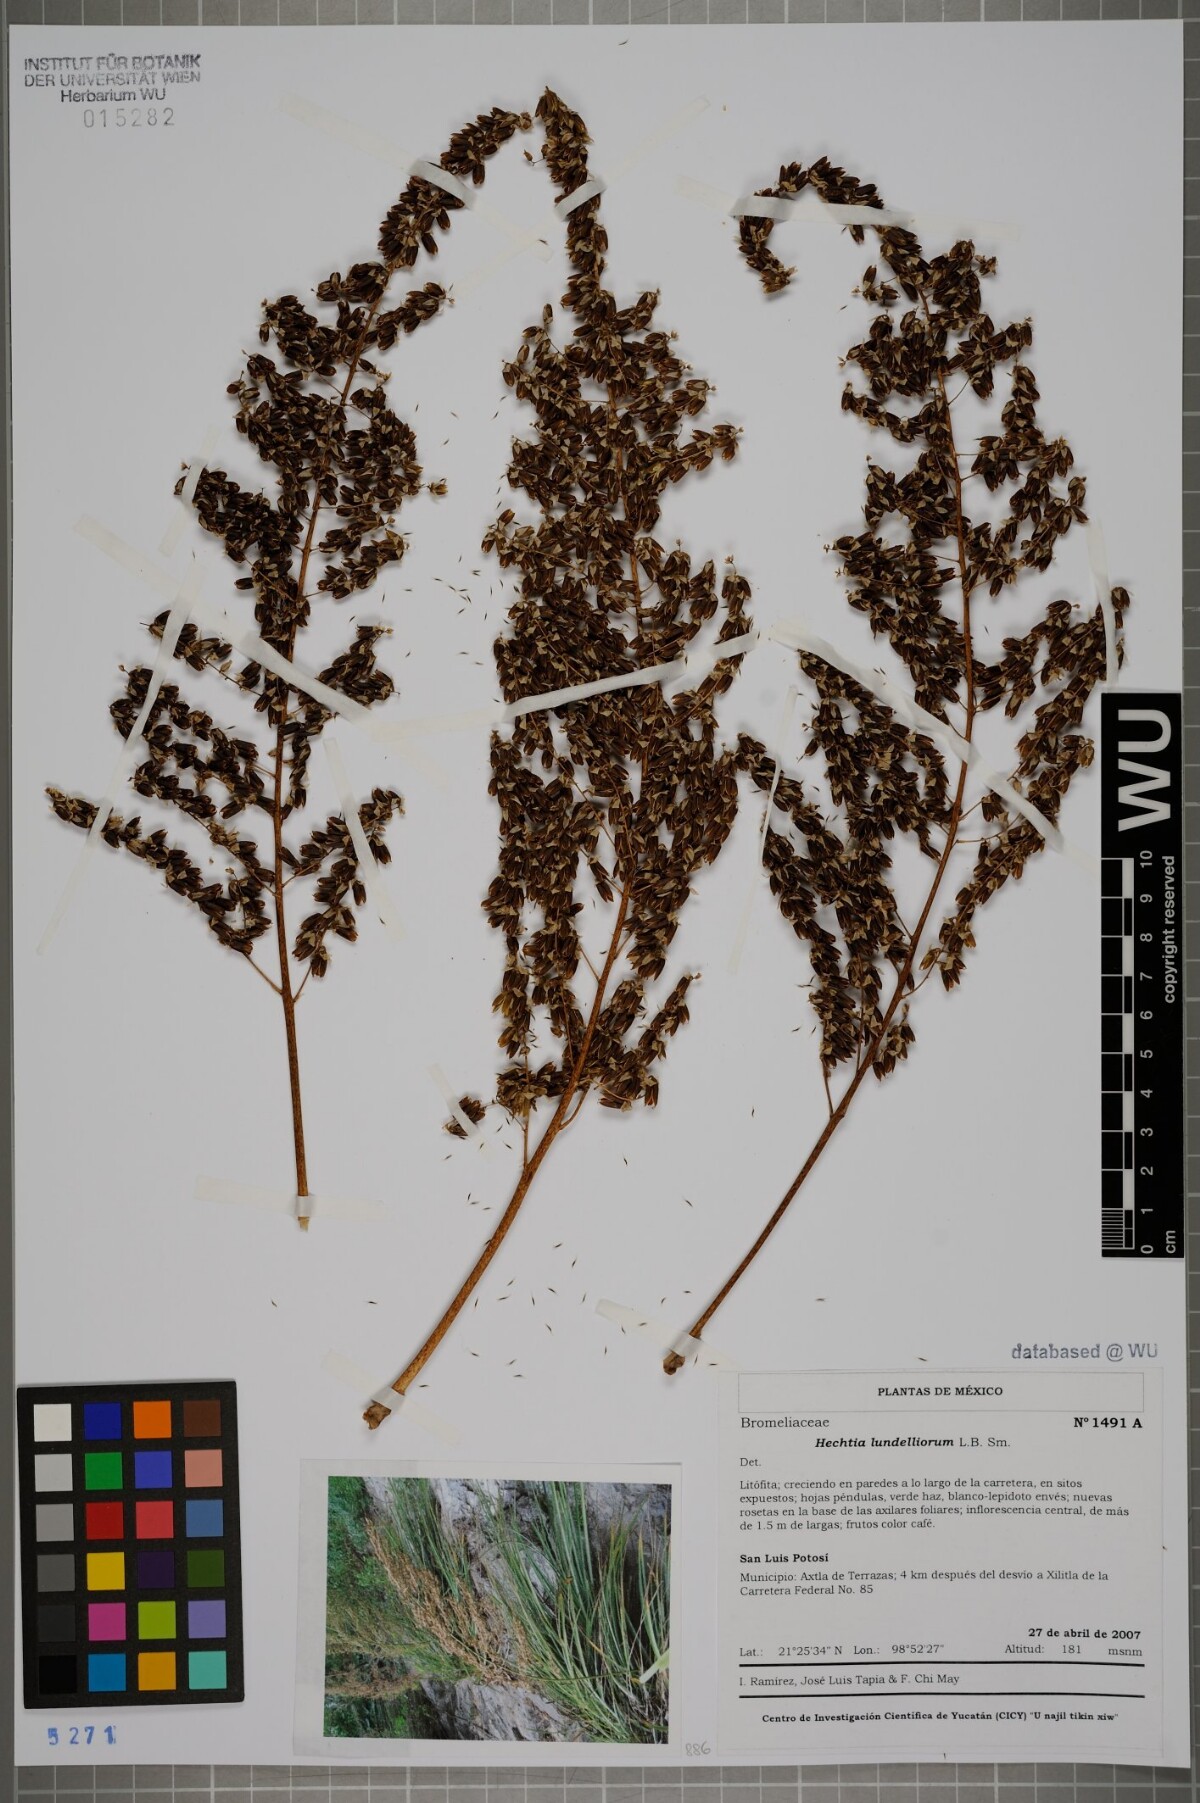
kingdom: Plantae
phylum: Tracheophyta
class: Liliopsida
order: Poales
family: Bromeliaceae
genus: Hechtia
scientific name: Hechtia lundelliorum
